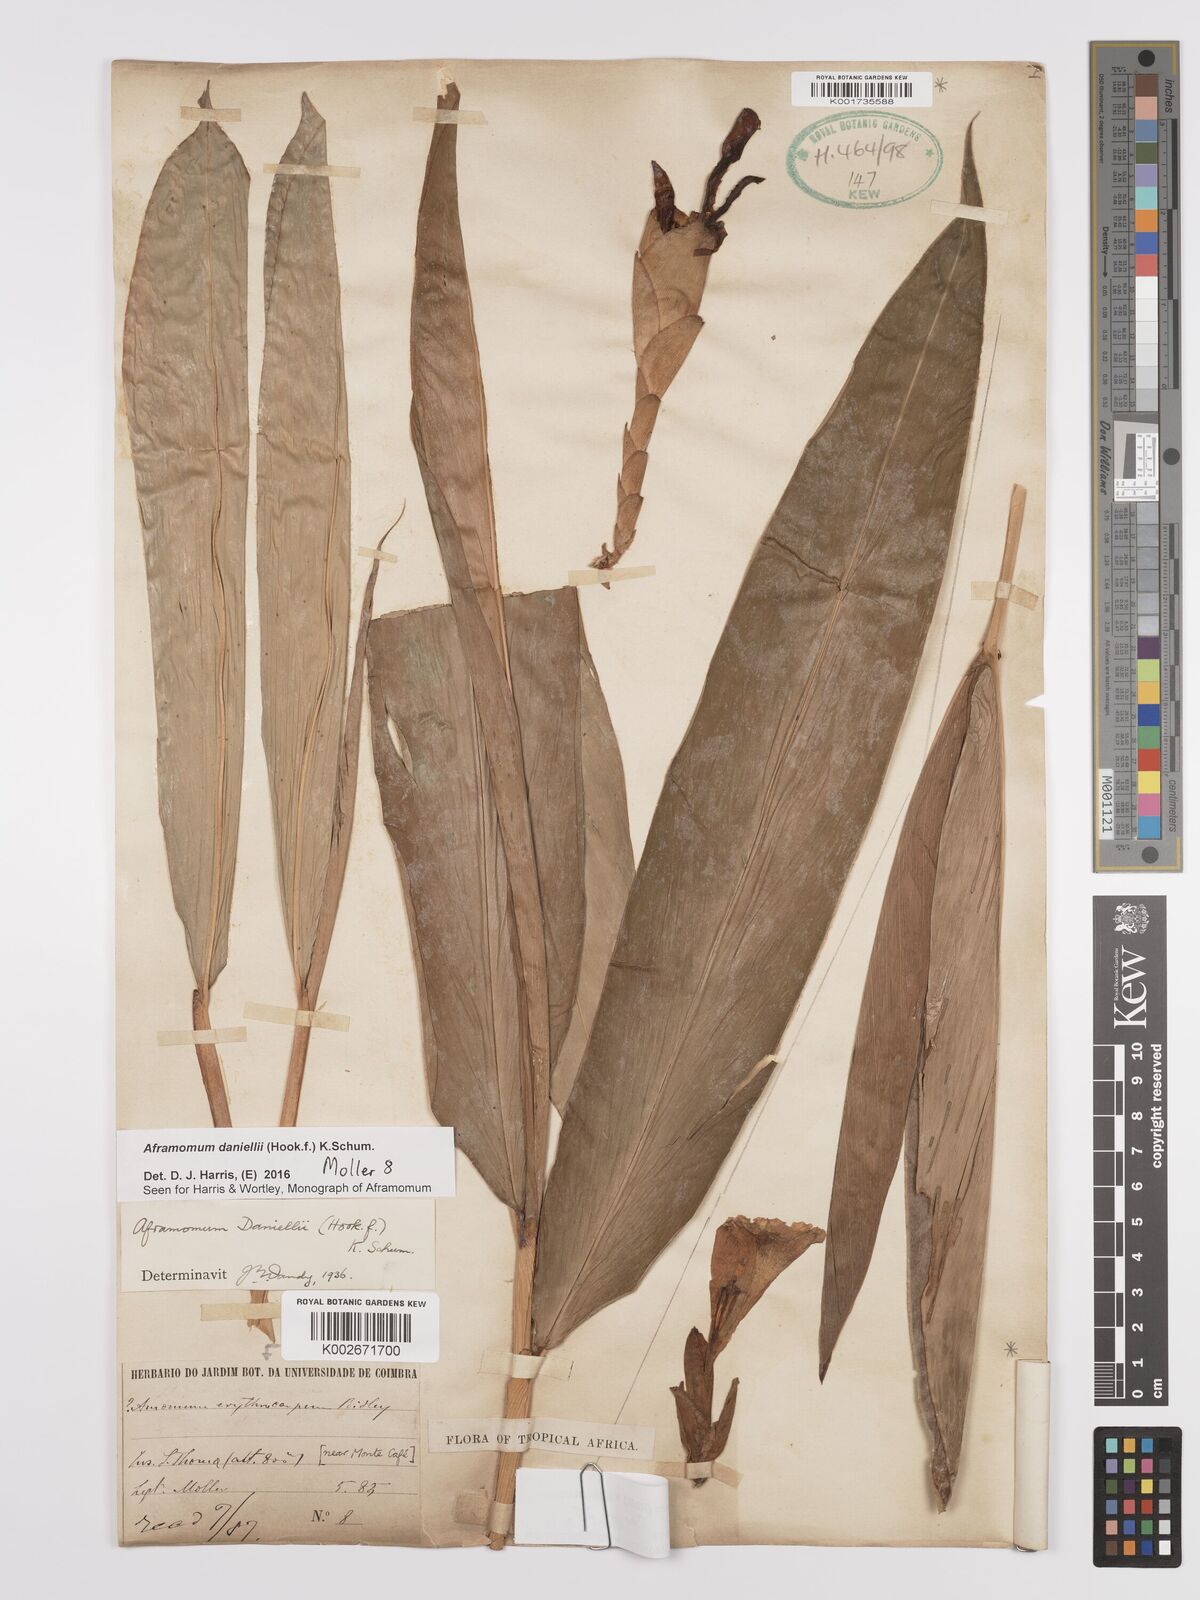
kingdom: Plantae
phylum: Tracheophyta
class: Liliopsida
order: Zingiberales
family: Zingiberaceae
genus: Aframomum
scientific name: Aframomum alboviolaceum
